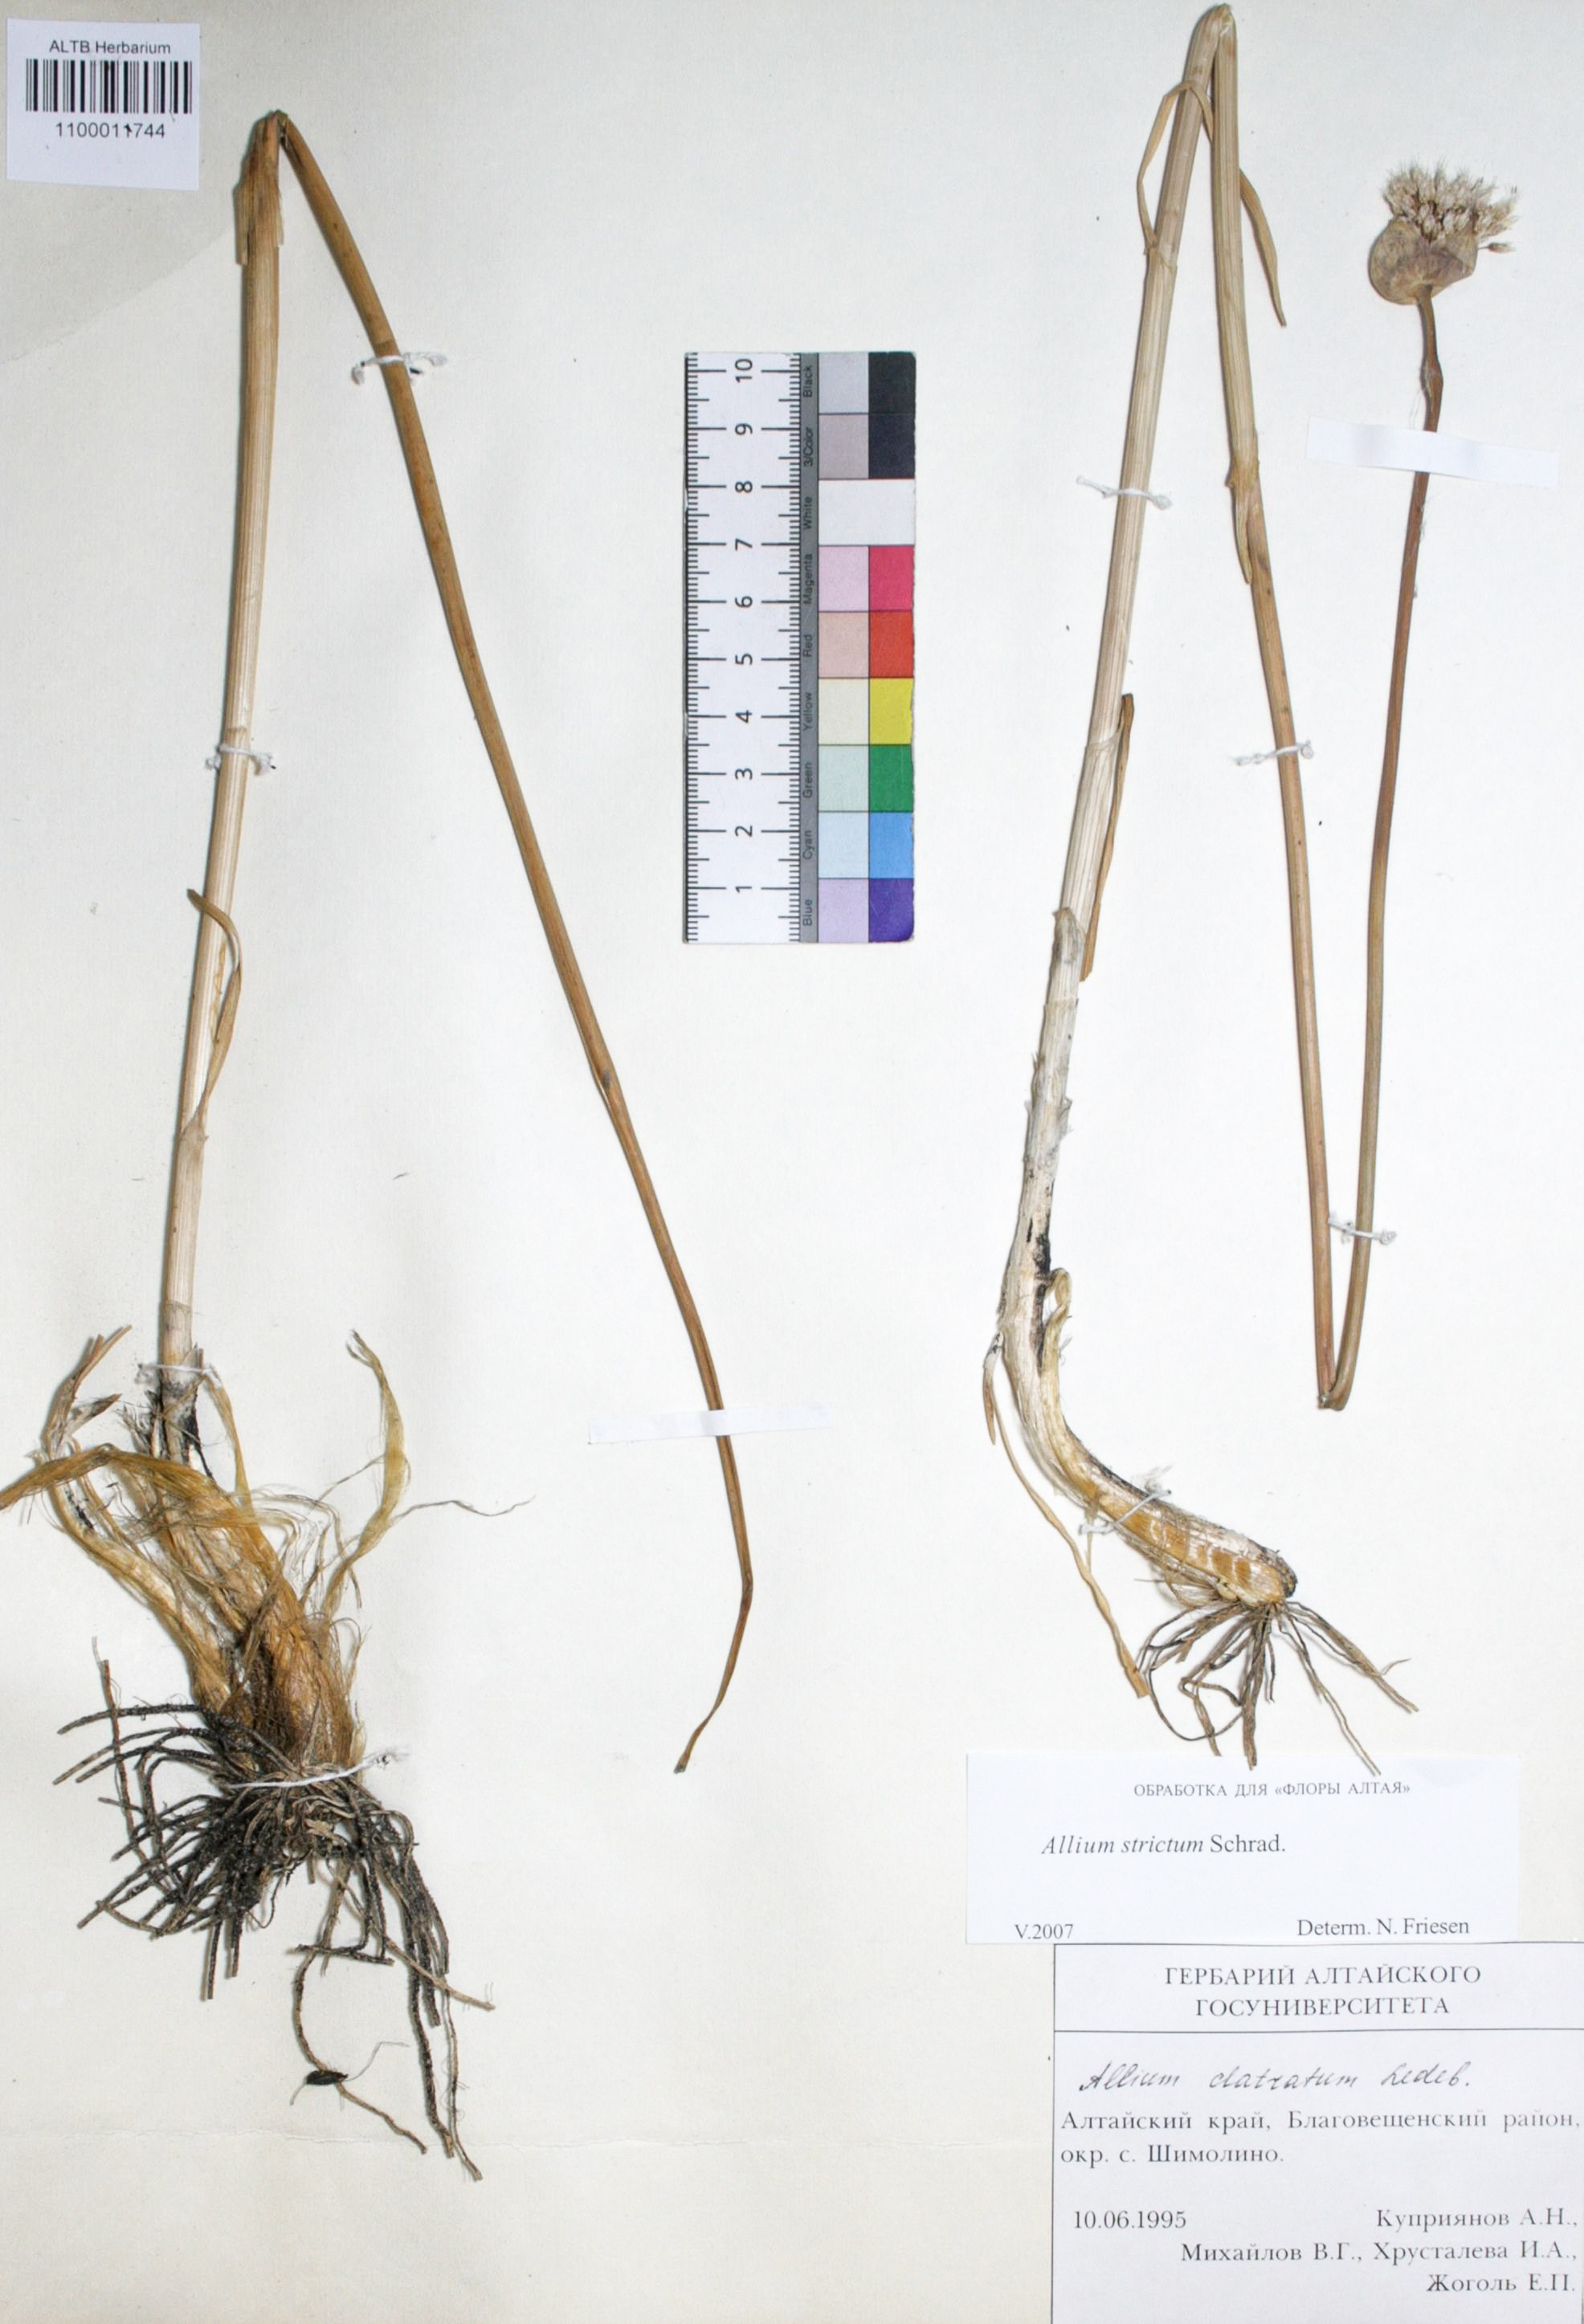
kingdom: Plantae
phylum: Tracheophyta
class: Liliopsida
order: Asparagales
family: Amaryllidaceae
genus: Allium
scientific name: Allium strictum
